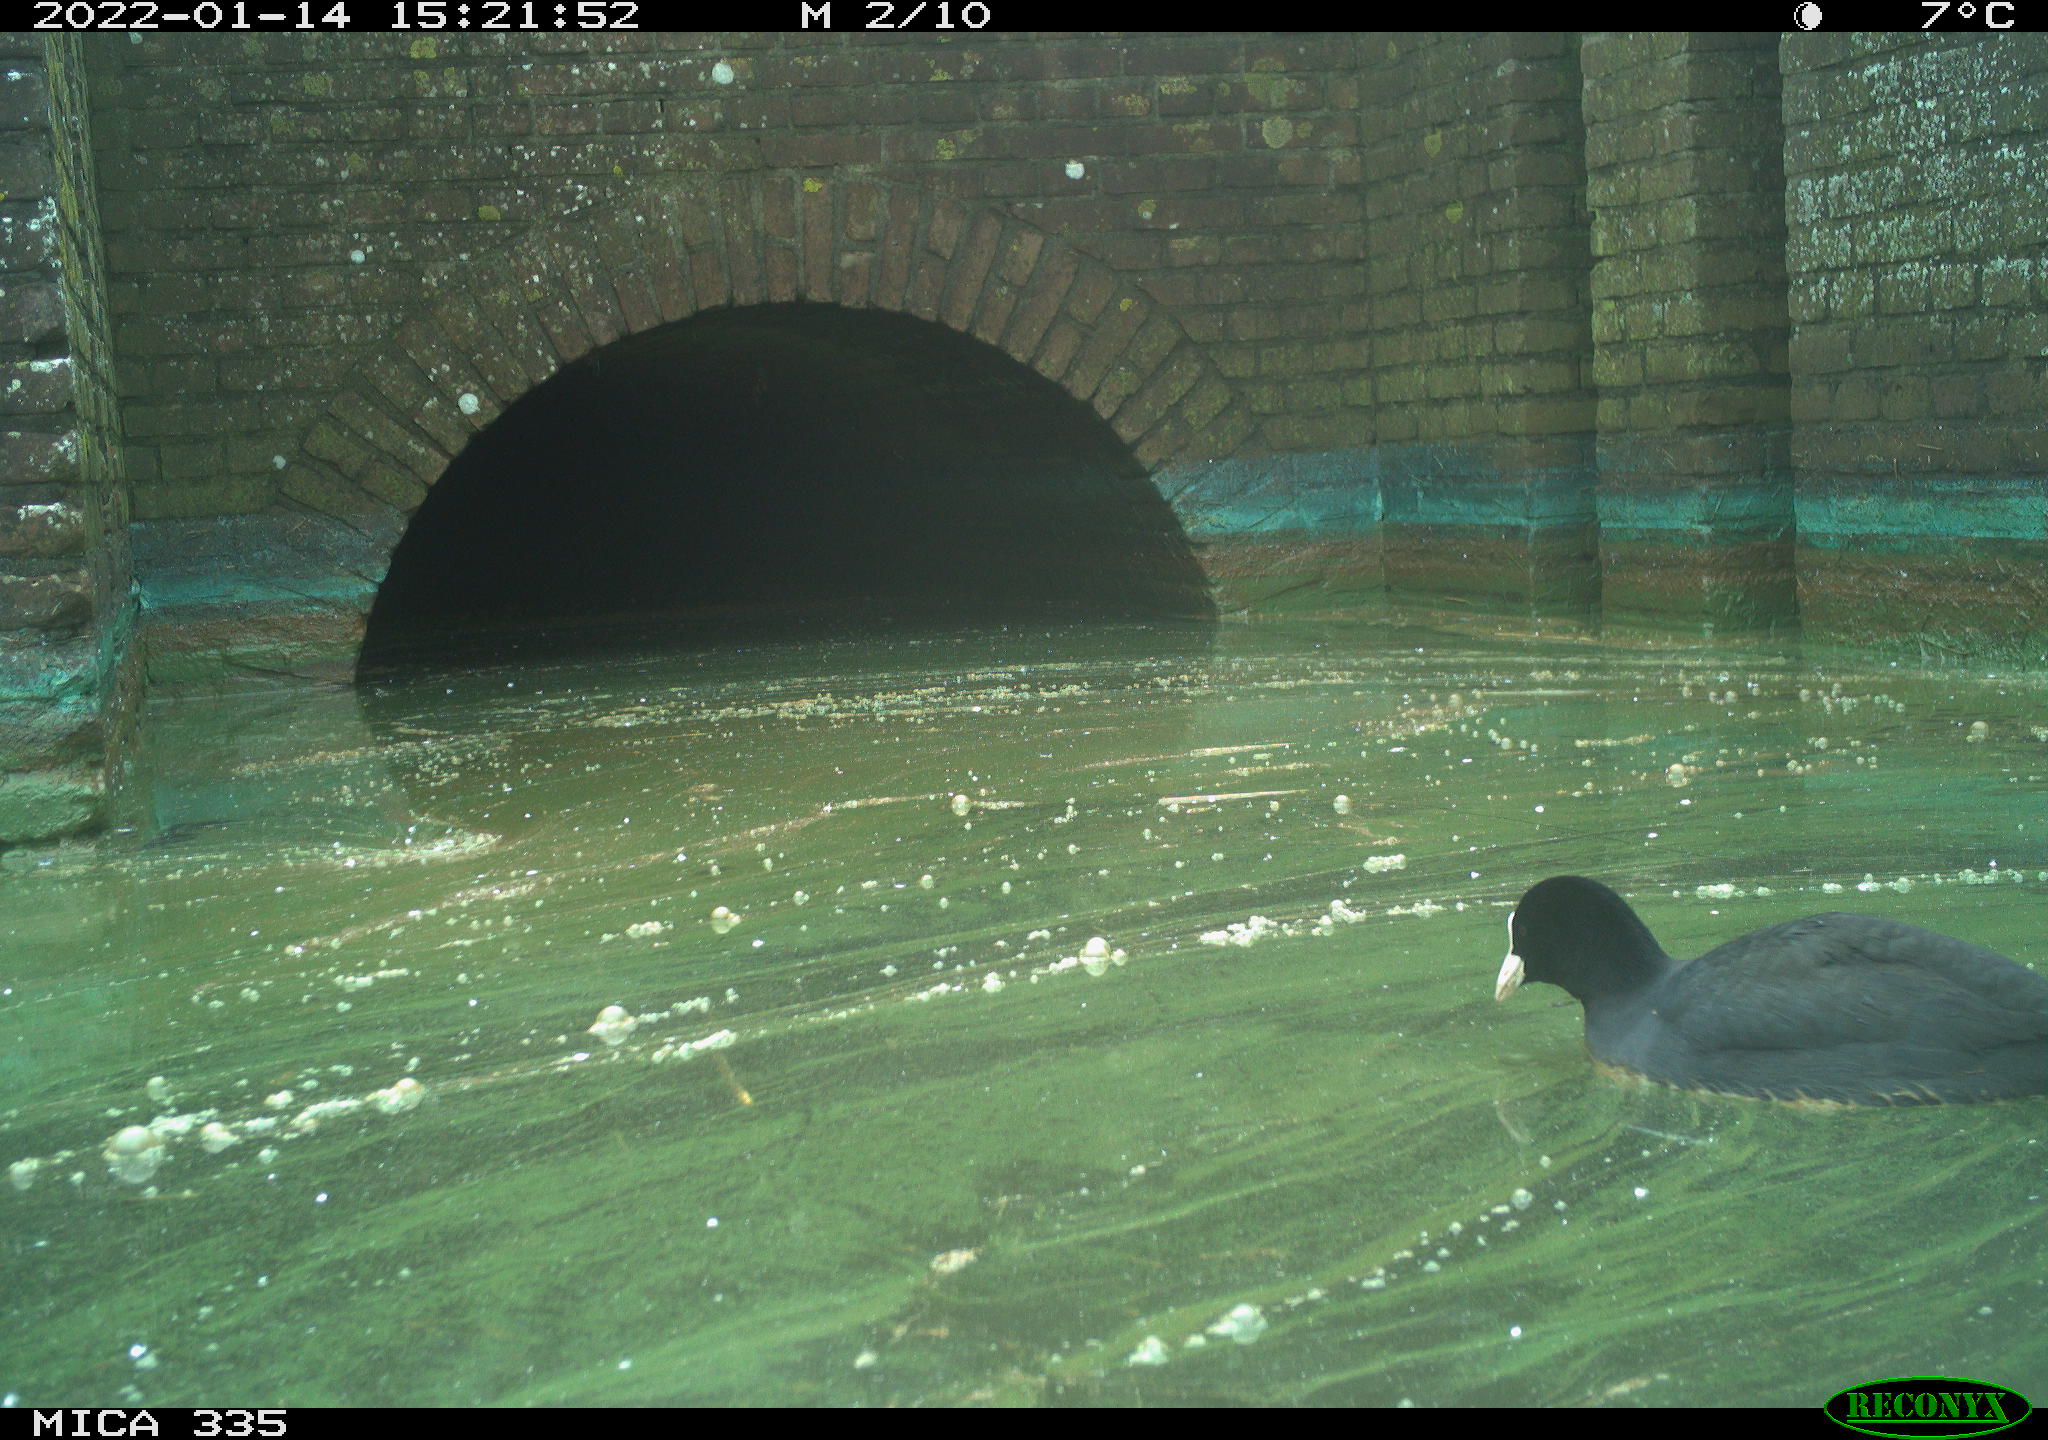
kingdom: Animalia
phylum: Chordata
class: Aves
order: Gruiformes
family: Rallidae
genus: Fulica
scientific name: Fulica atra
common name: Eurasian coot
